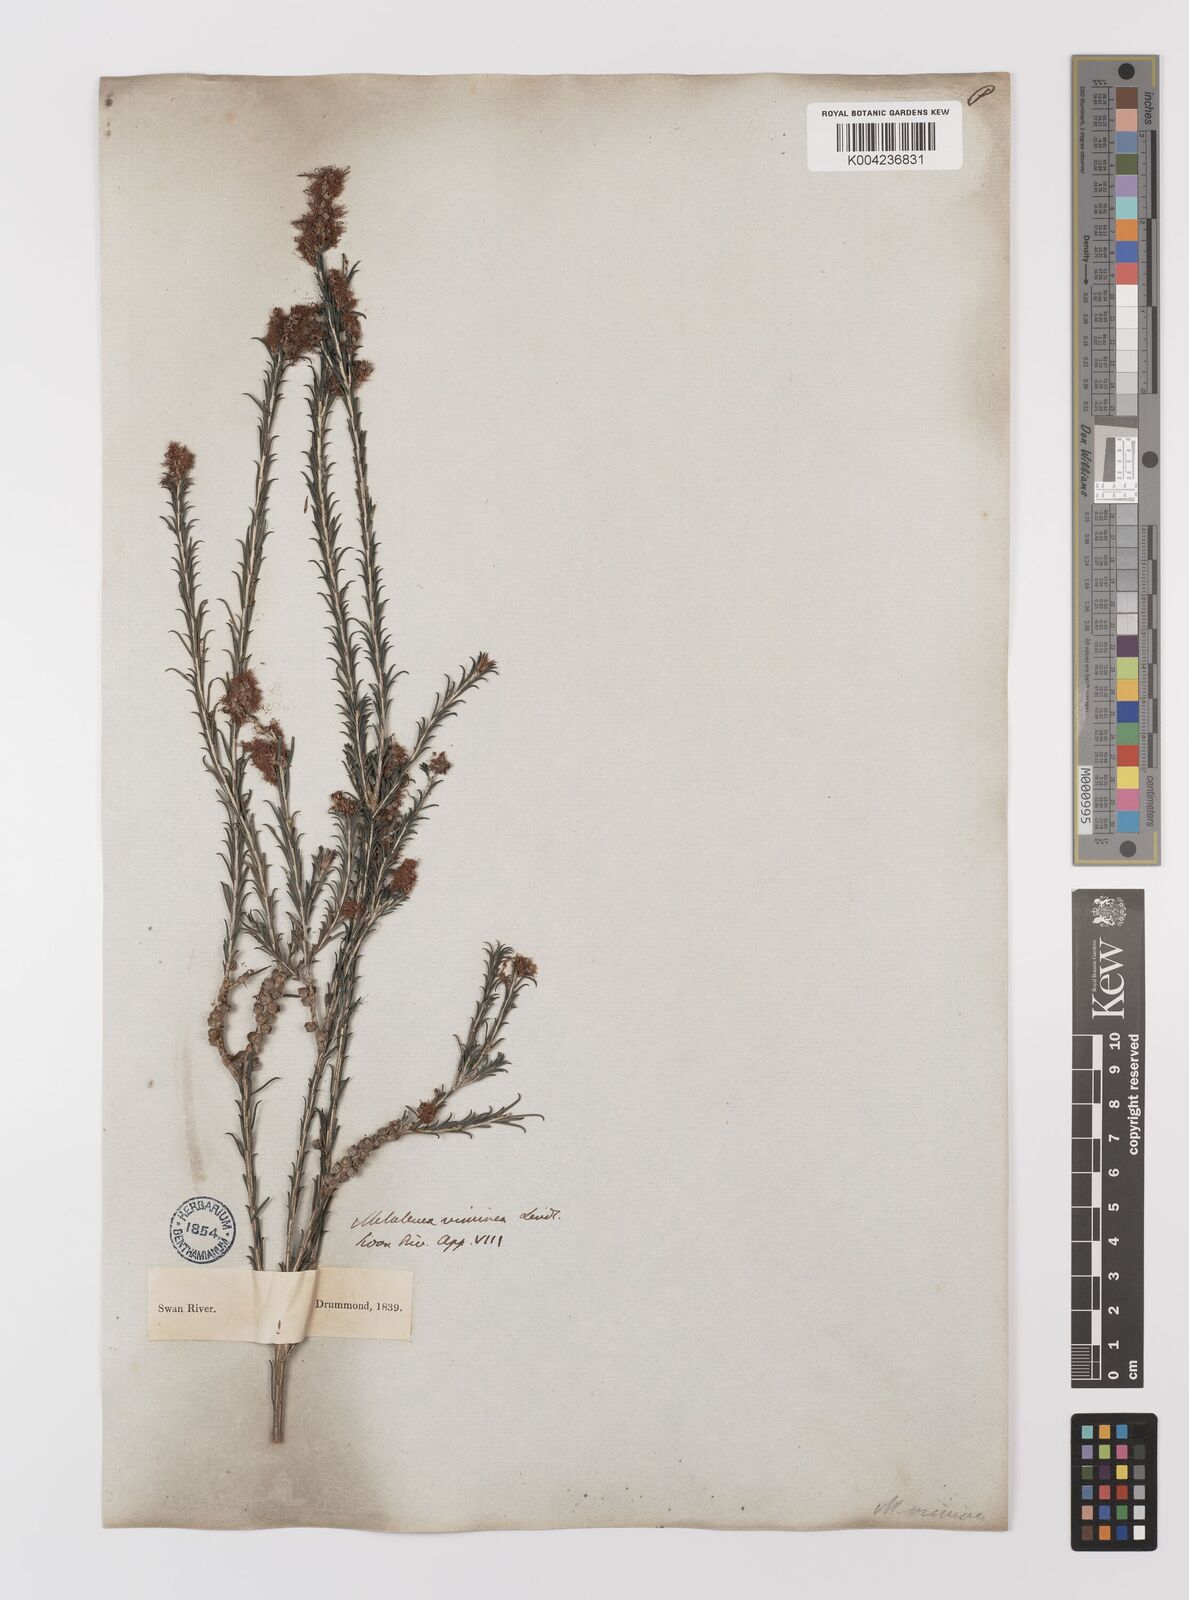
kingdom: Plantae
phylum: Tracheophyta
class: Magnoliopsida
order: Myrtales
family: Myrtaceae
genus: Melaleuca
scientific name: Melaleuca viminea
